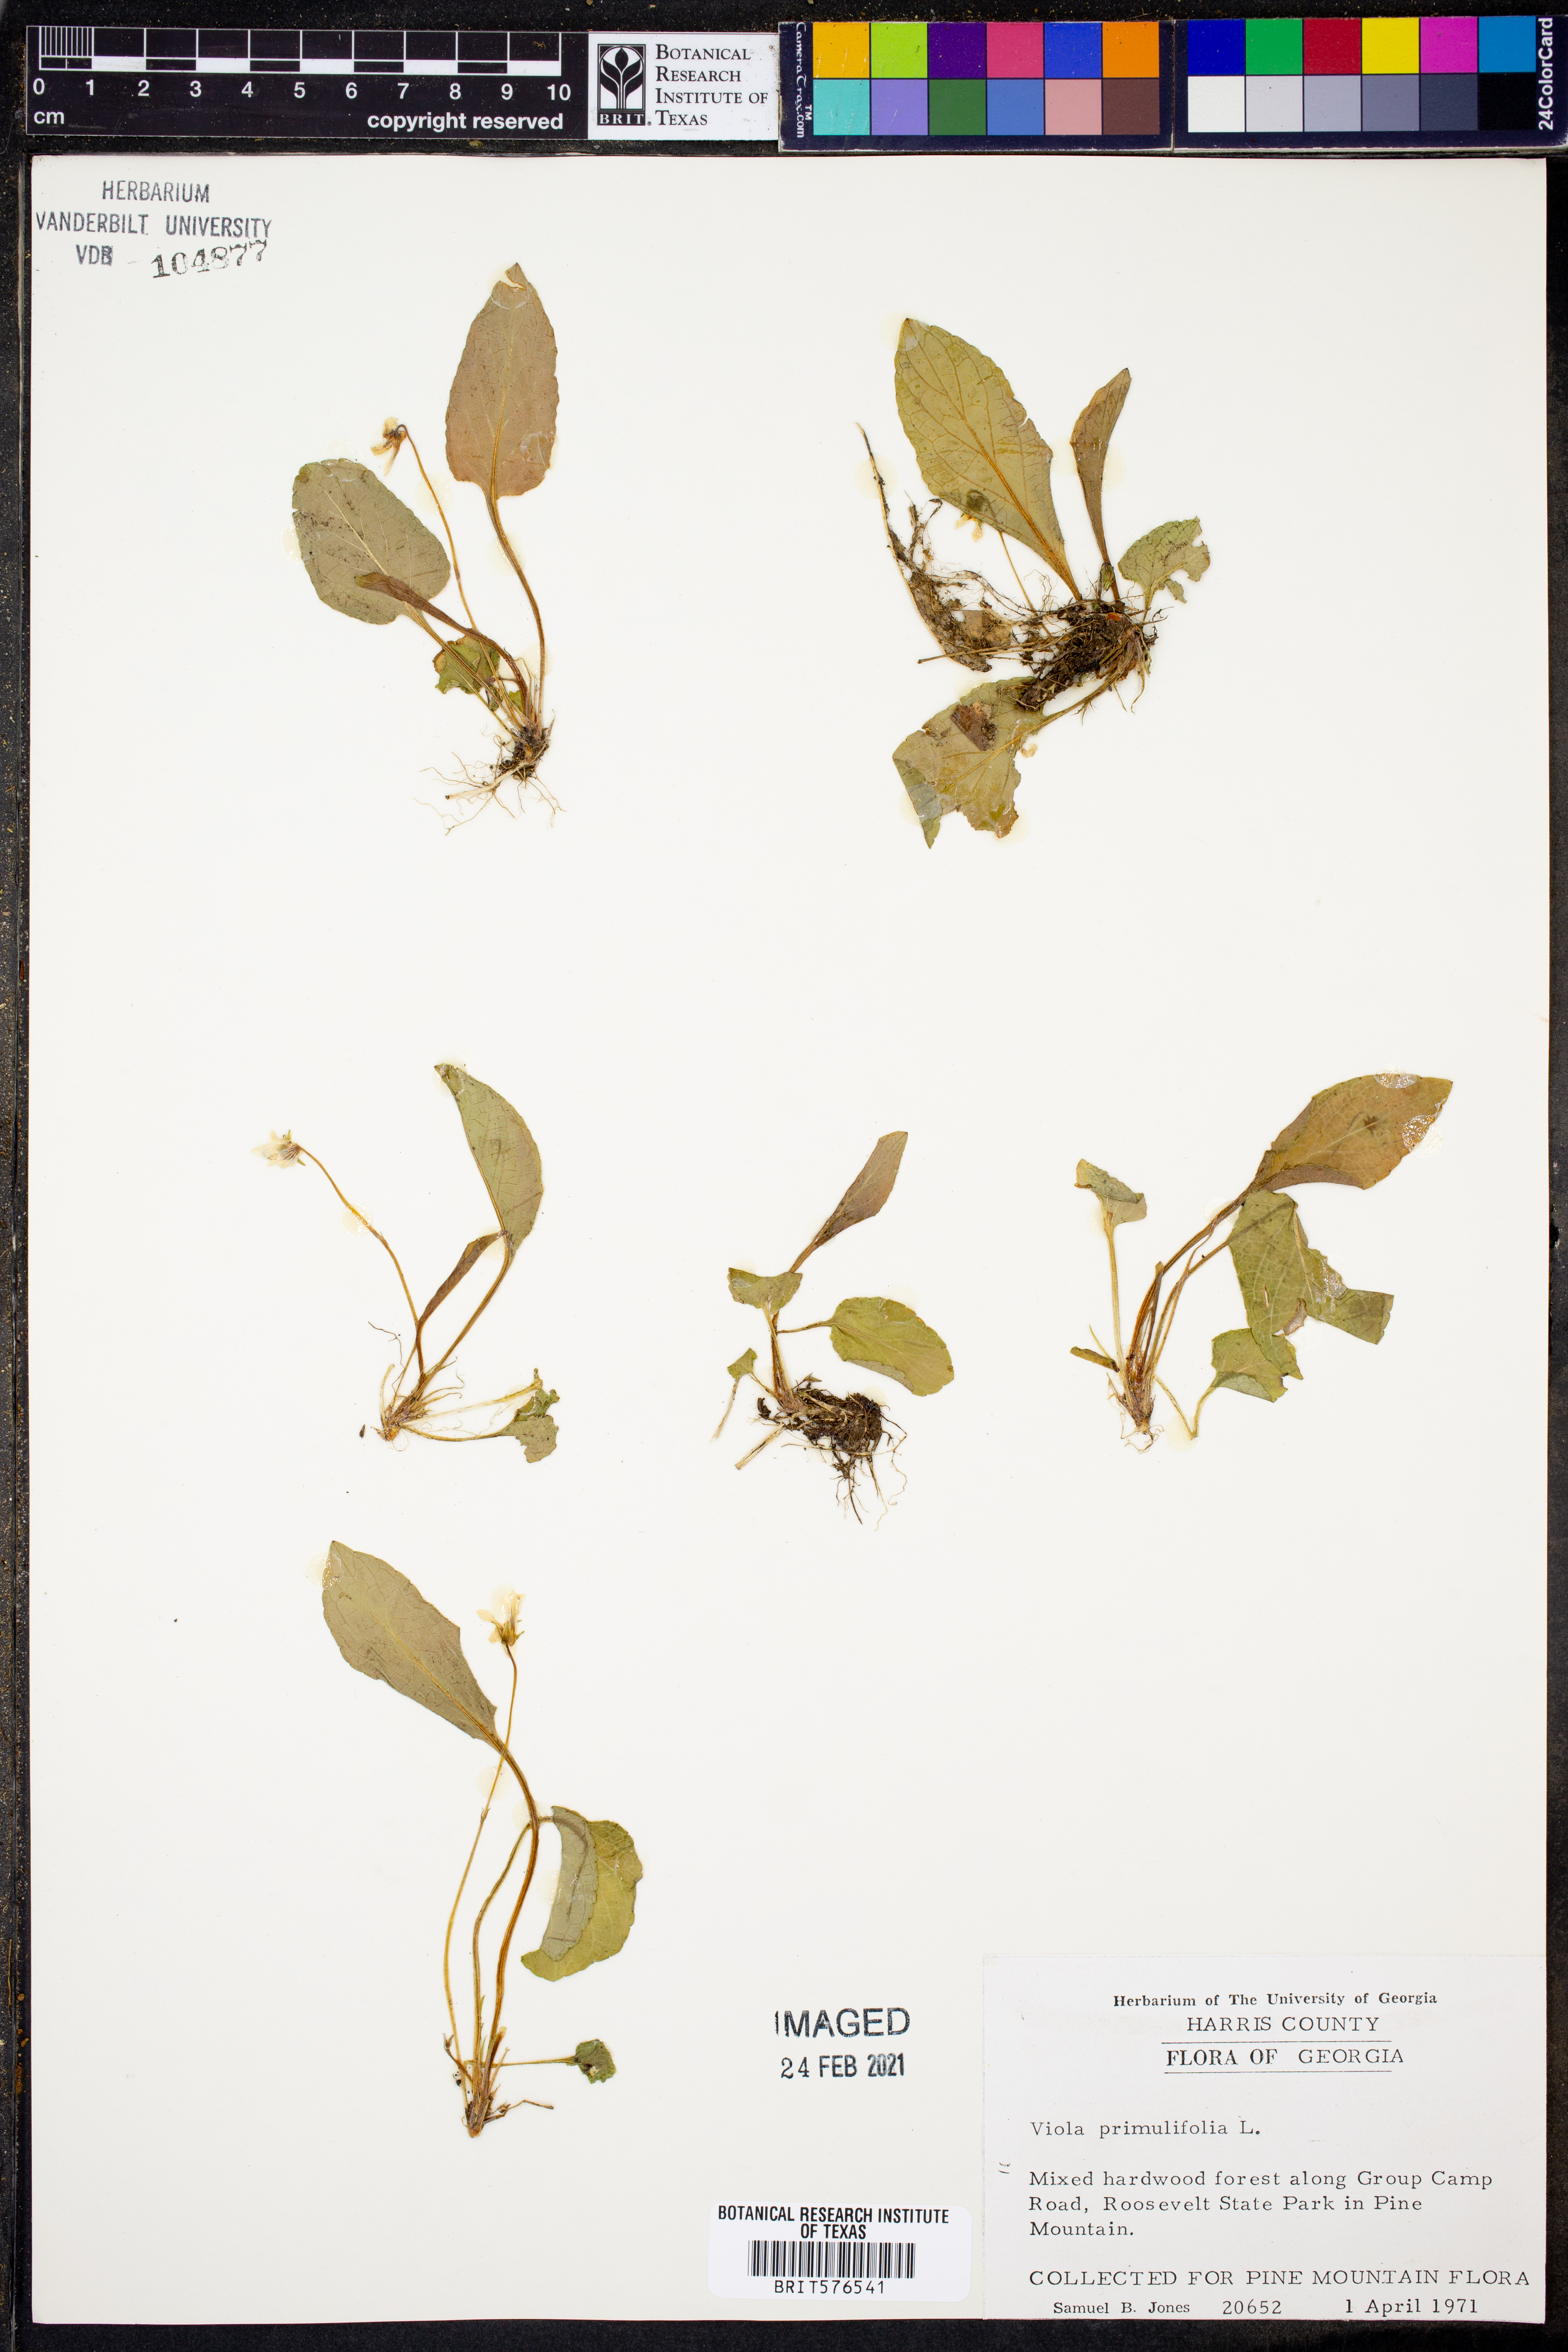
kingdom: Plantae
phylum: Tracheophyta
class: Magnoliopsida
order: Malpighiales
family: Violaceae
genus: Viola
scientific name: Viola primulifolia
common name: Primrose-leaf violet
